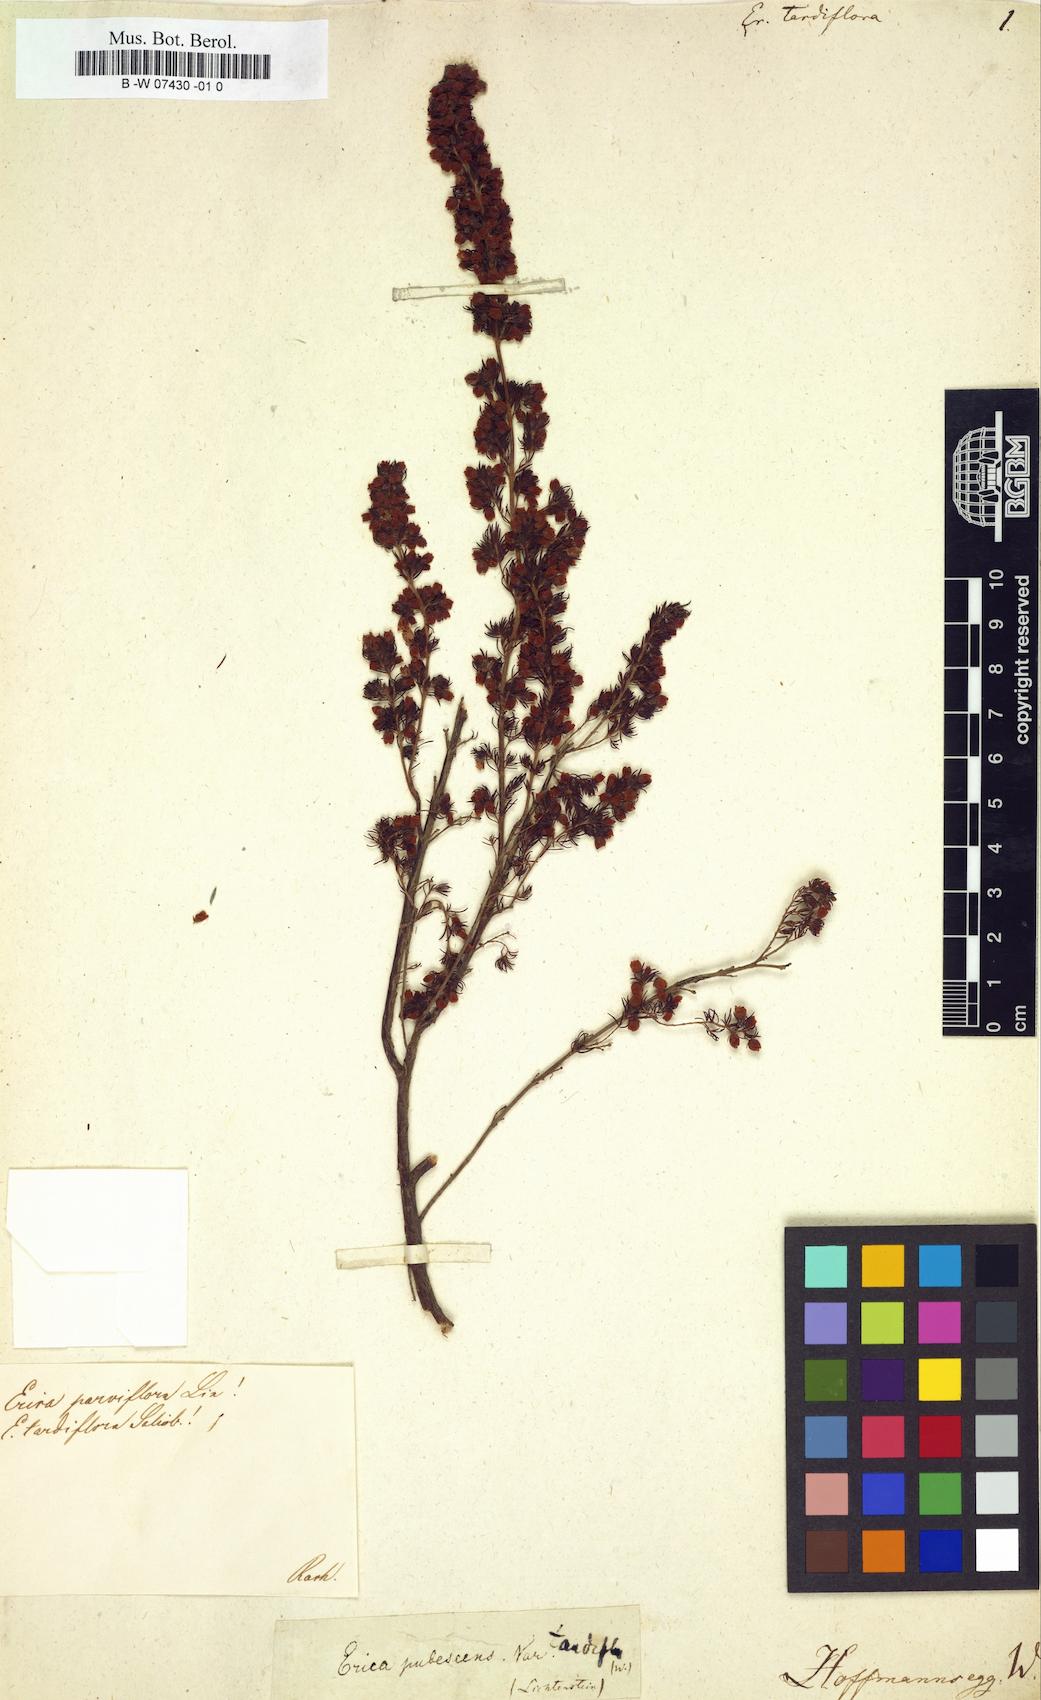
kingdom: Plantae
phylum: Tracheophyta
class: Magnoliopsida
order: Ericales
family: Ericaceae
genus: Erica
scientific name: Erica parviflora
